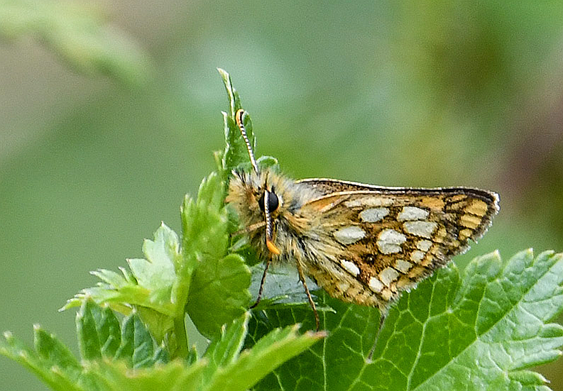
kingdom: Animalia
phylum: Arthropoda
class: Insecta
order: Lepidoptera
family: Hesperiidae
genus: Carterocephalus
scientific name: Carterocephalus palaemon
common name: Chequered Skipper
